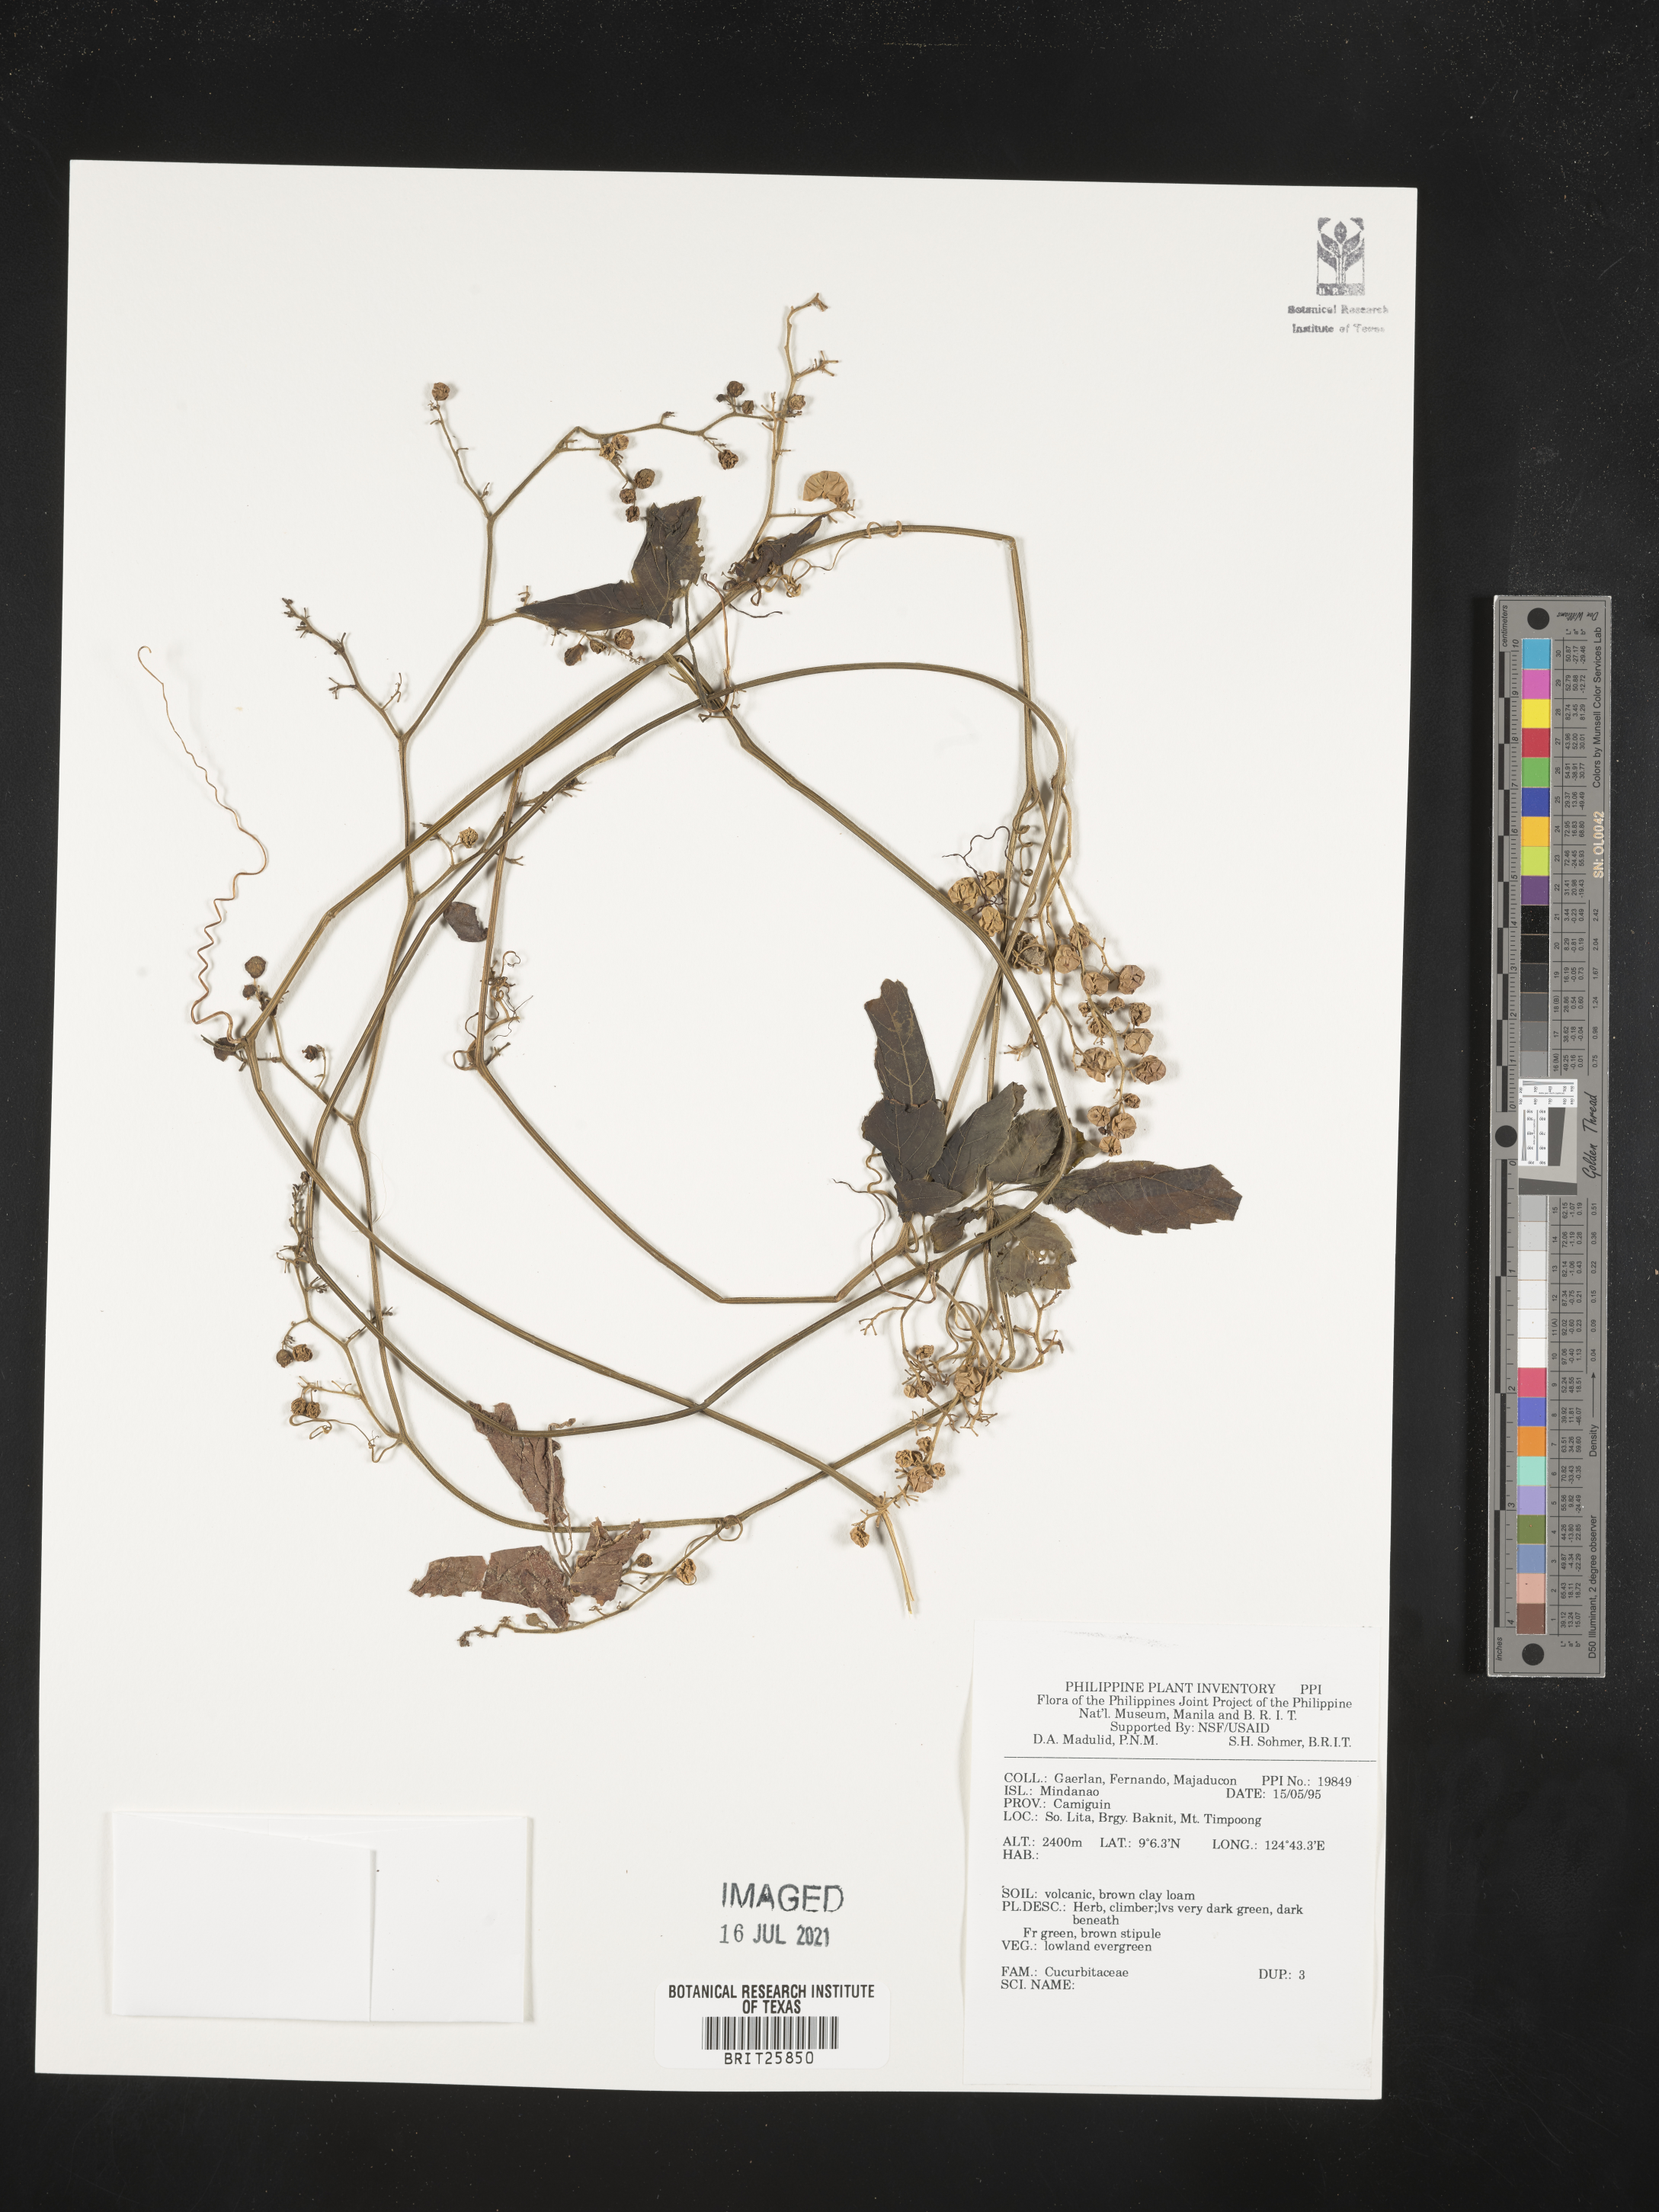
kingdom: Plantae
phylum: Tracheophyta
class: Magnoliopsida
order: Cucurbitales
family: Cucurbitaceae
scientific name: Cucurbitaceae
